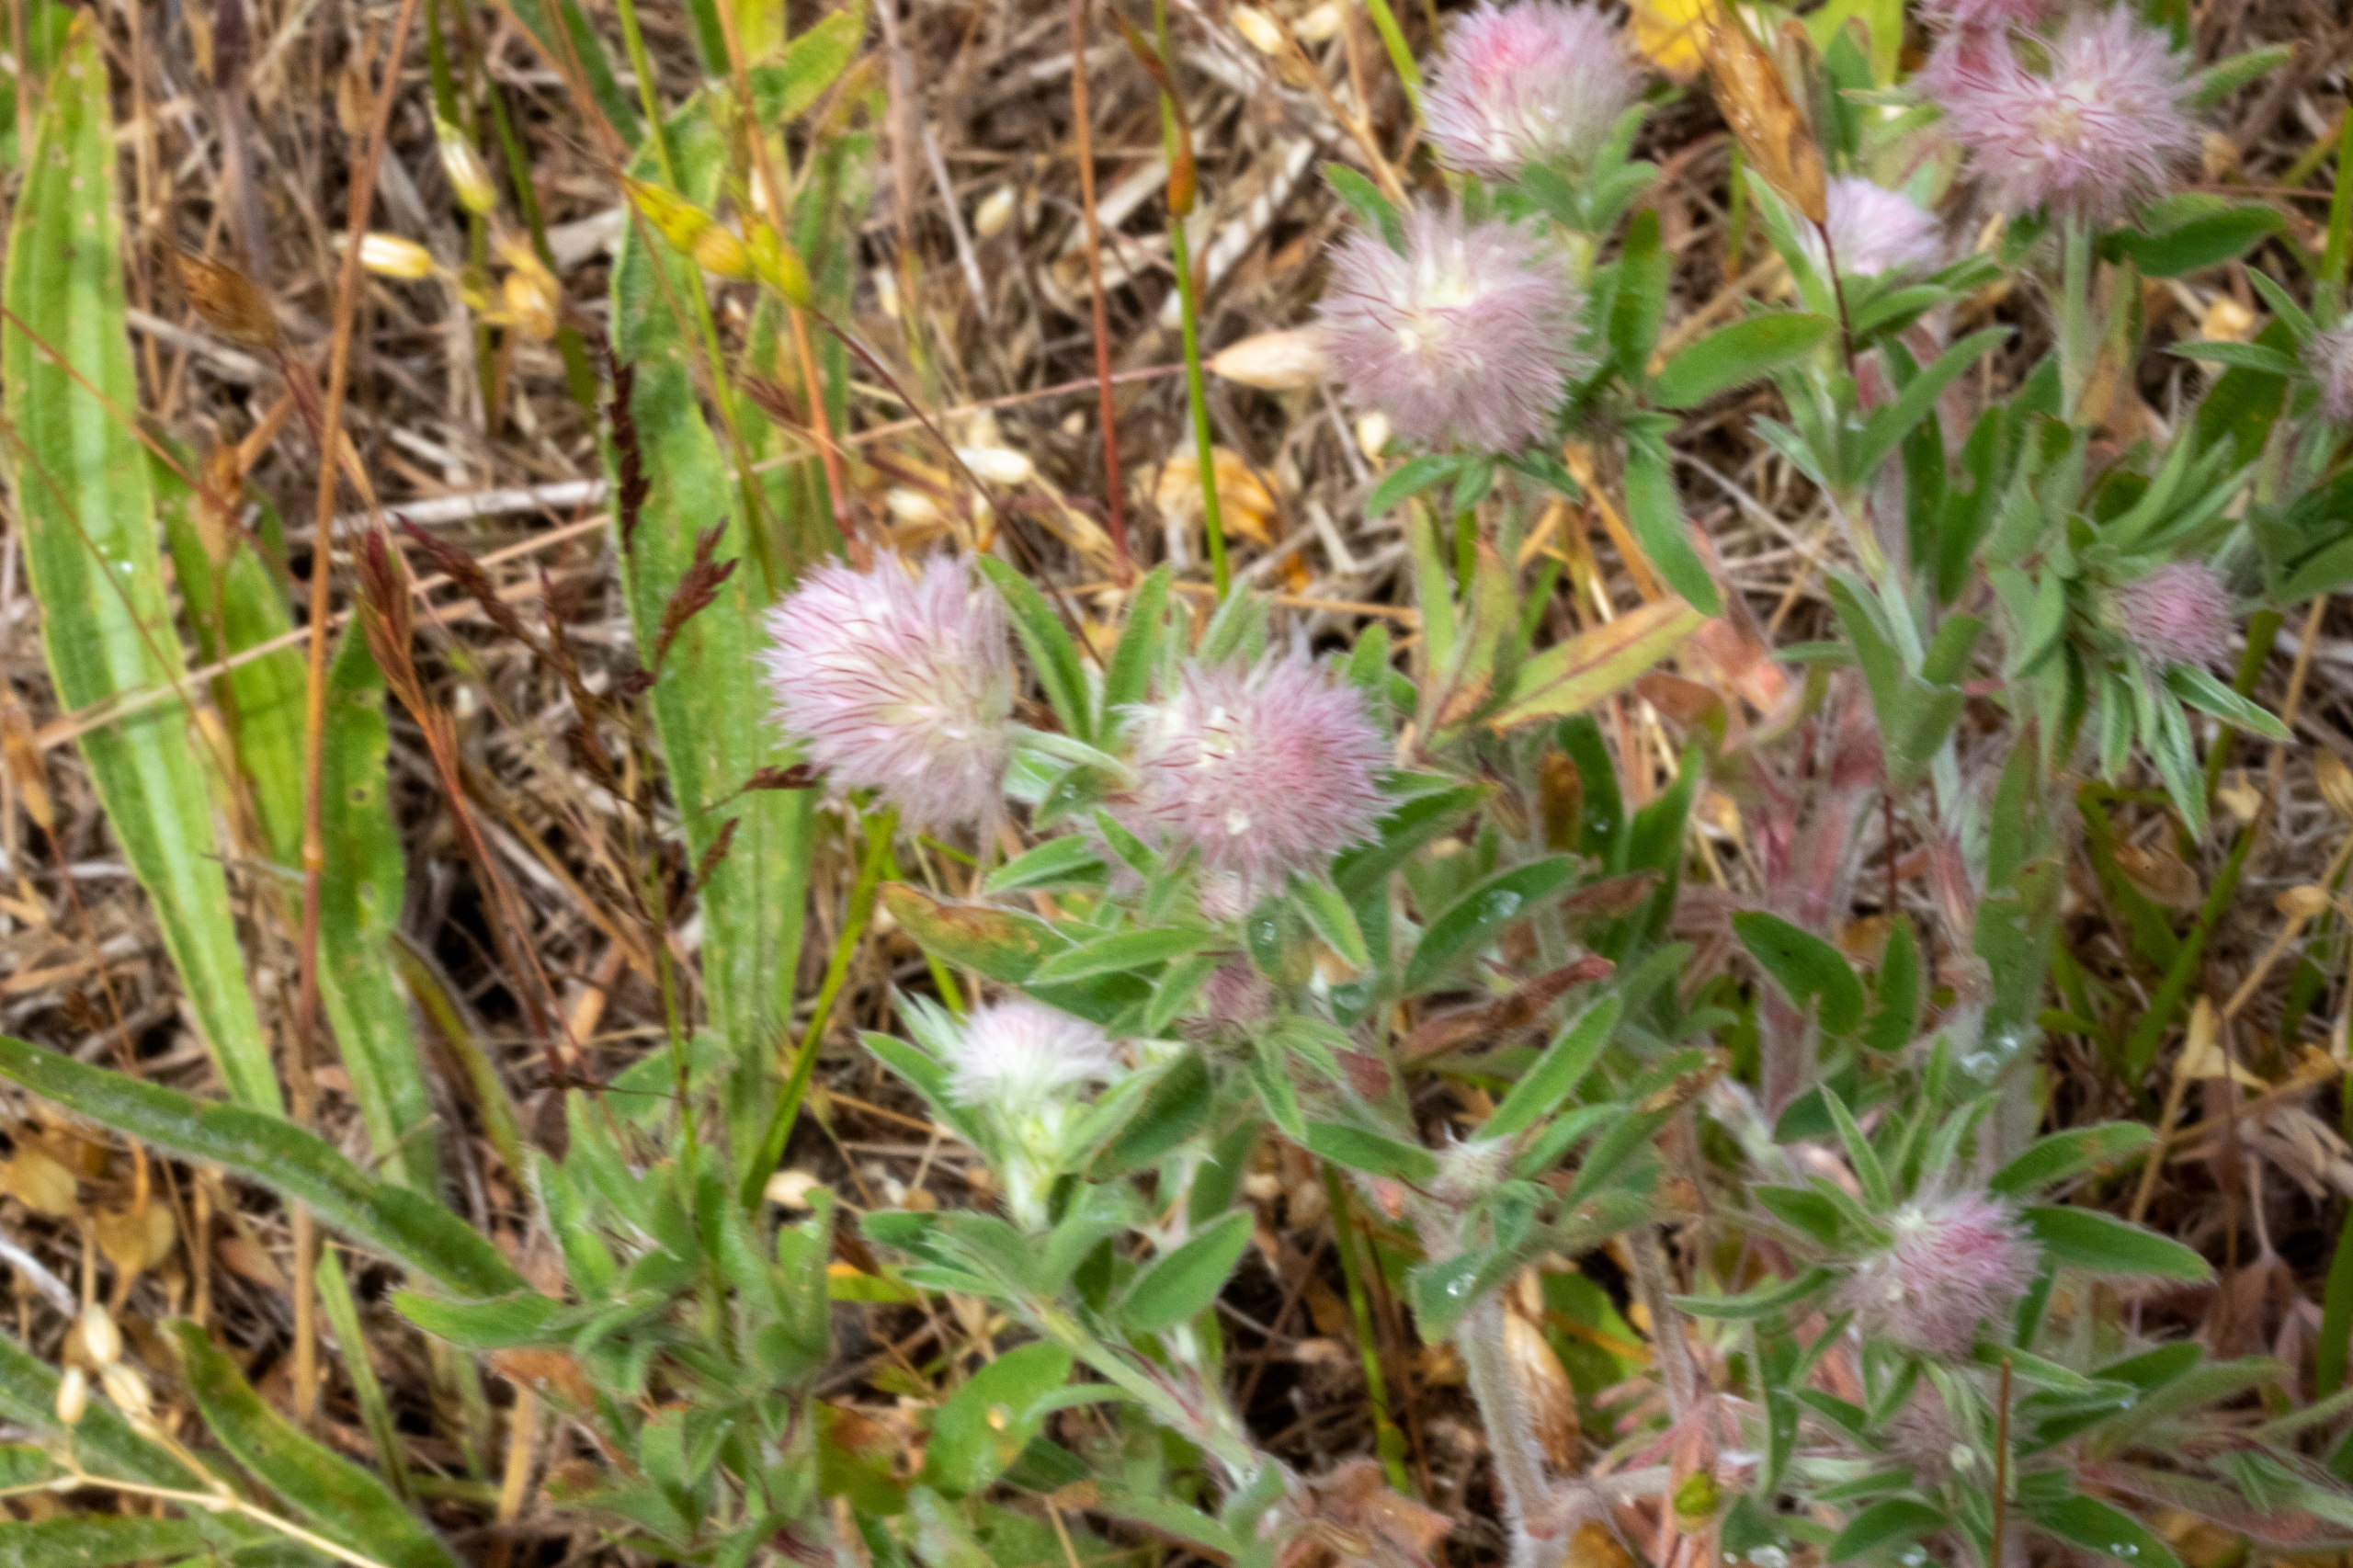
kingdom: Plantae
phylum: Tracheophyta
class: Magnoliopsida
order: Fabales
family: Fabaceae
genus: Trifolium
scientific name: Trifolium arvense
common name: Hare-kløver
